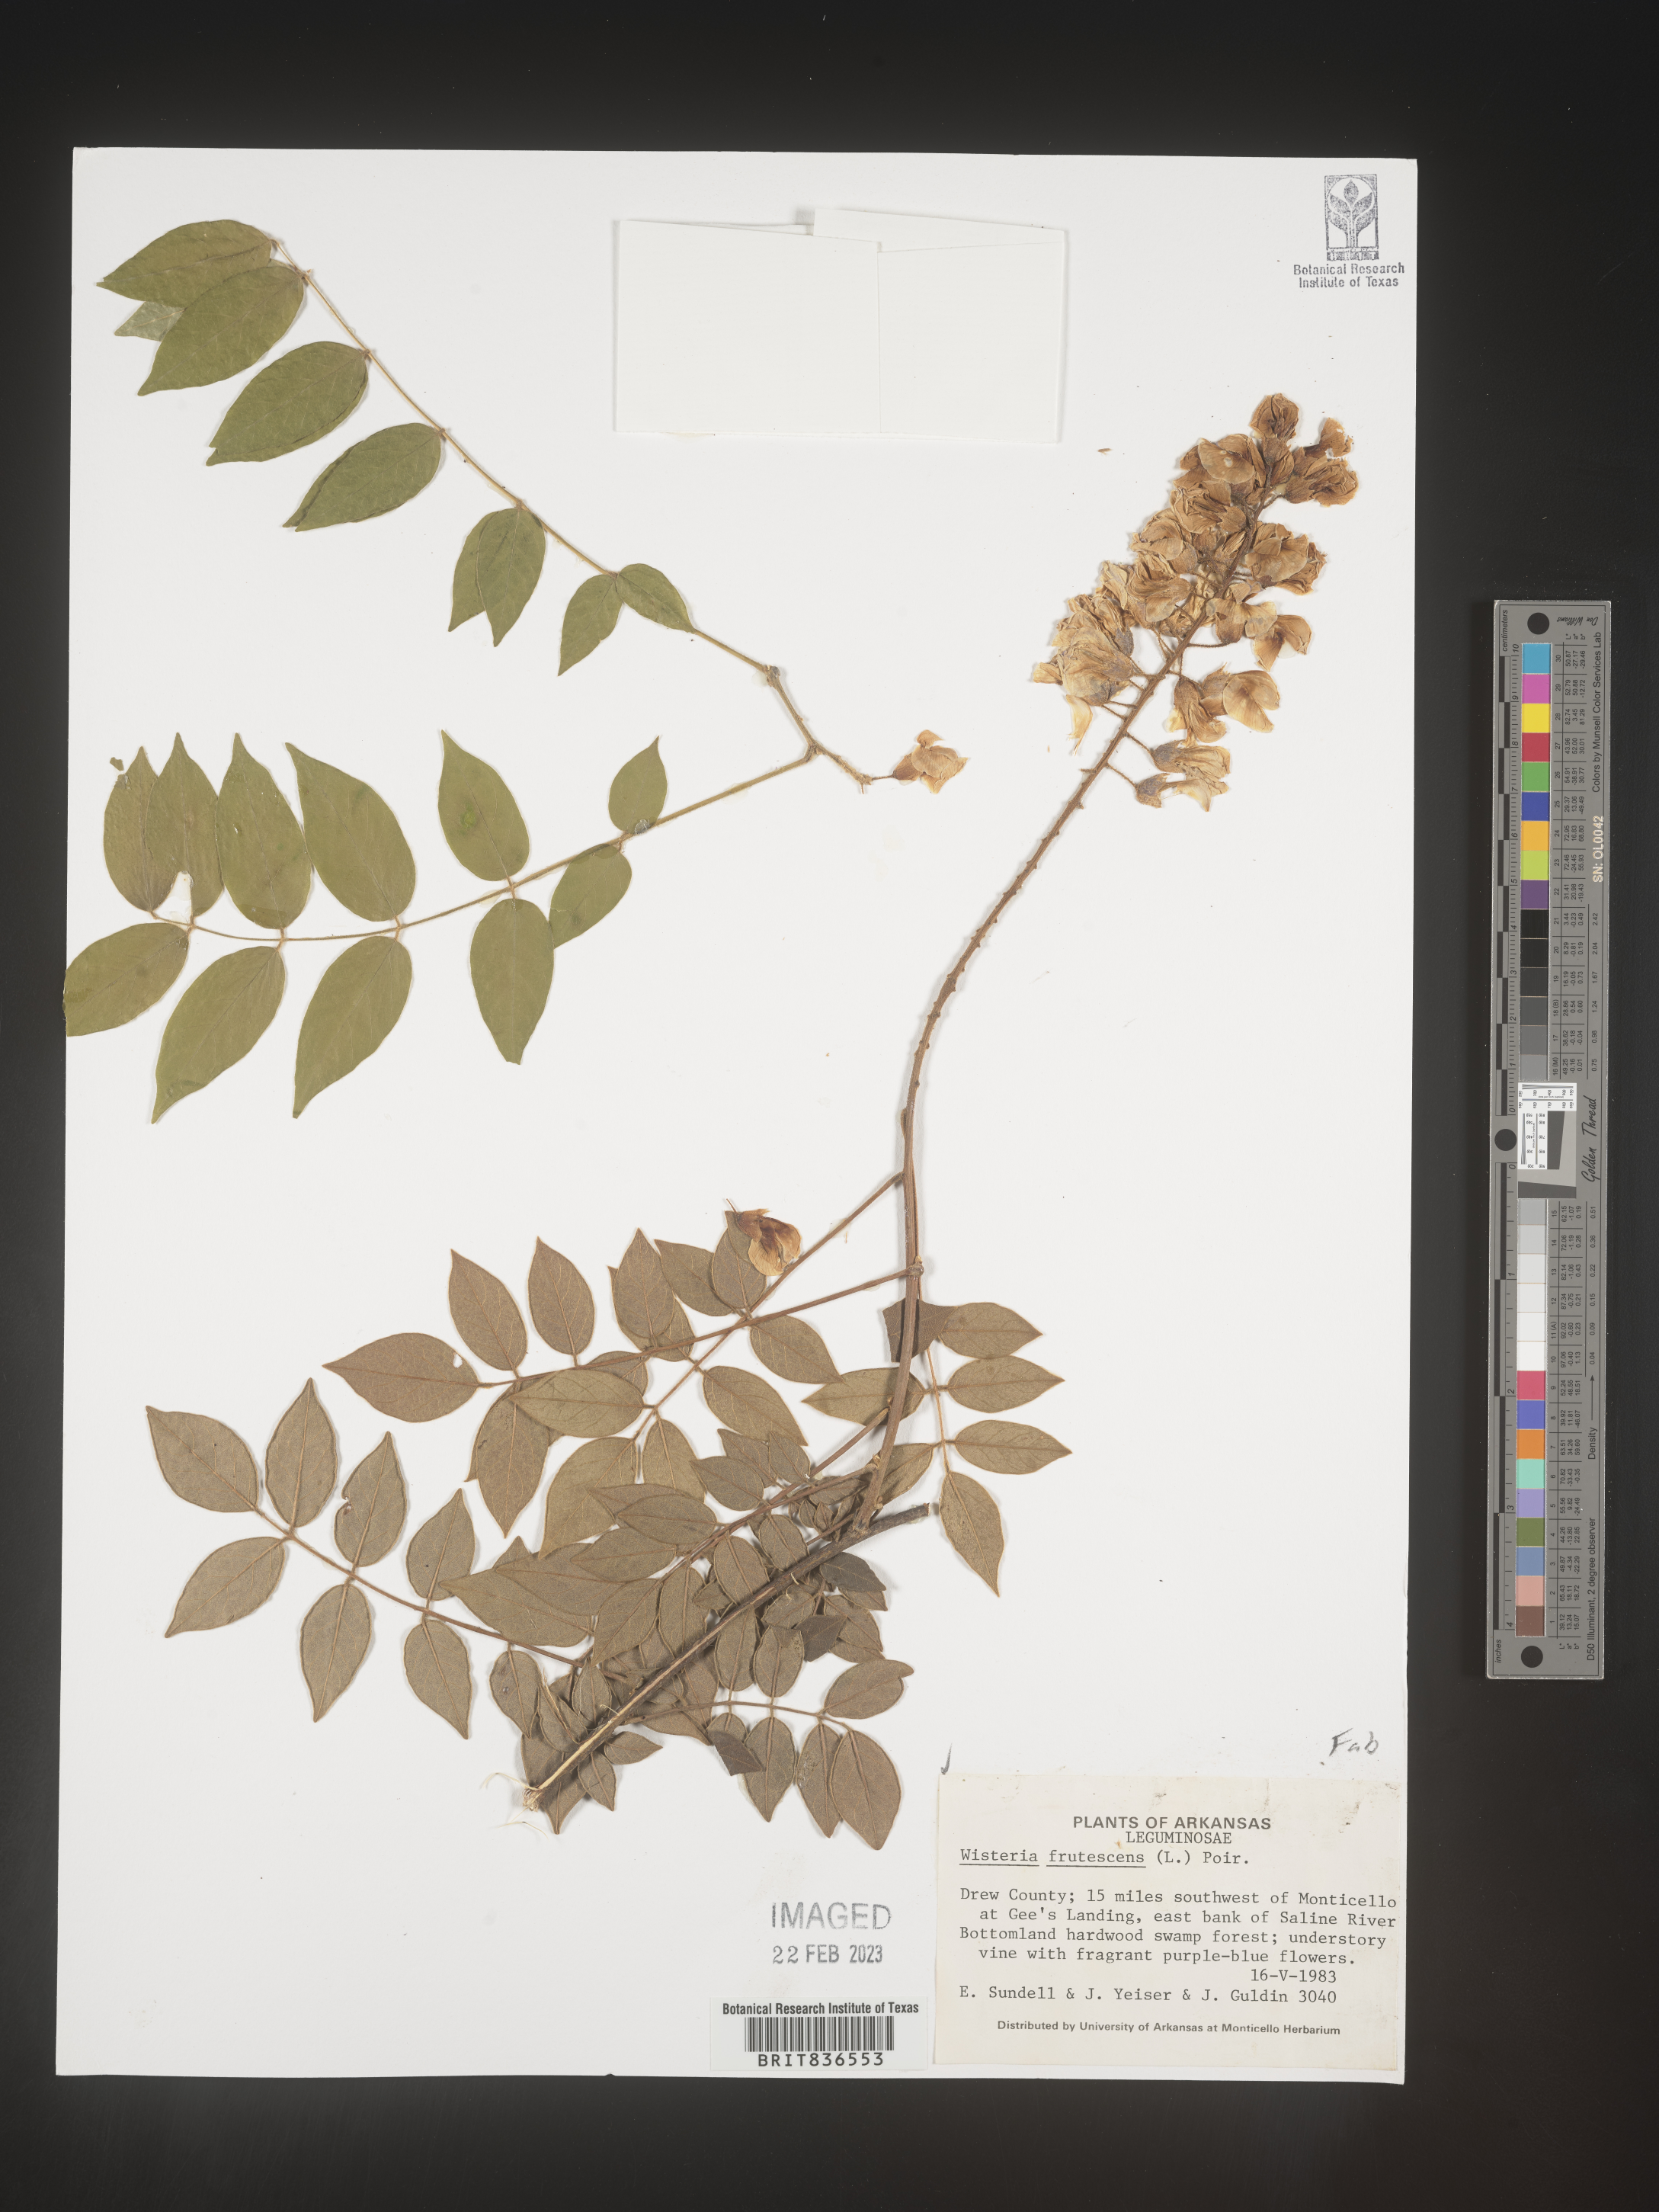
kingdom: Plantae
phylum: Tracheophyta
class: Magnoliopsida
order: Fabales
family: Fabaceae
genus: Wisteria
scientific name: Wisteria
